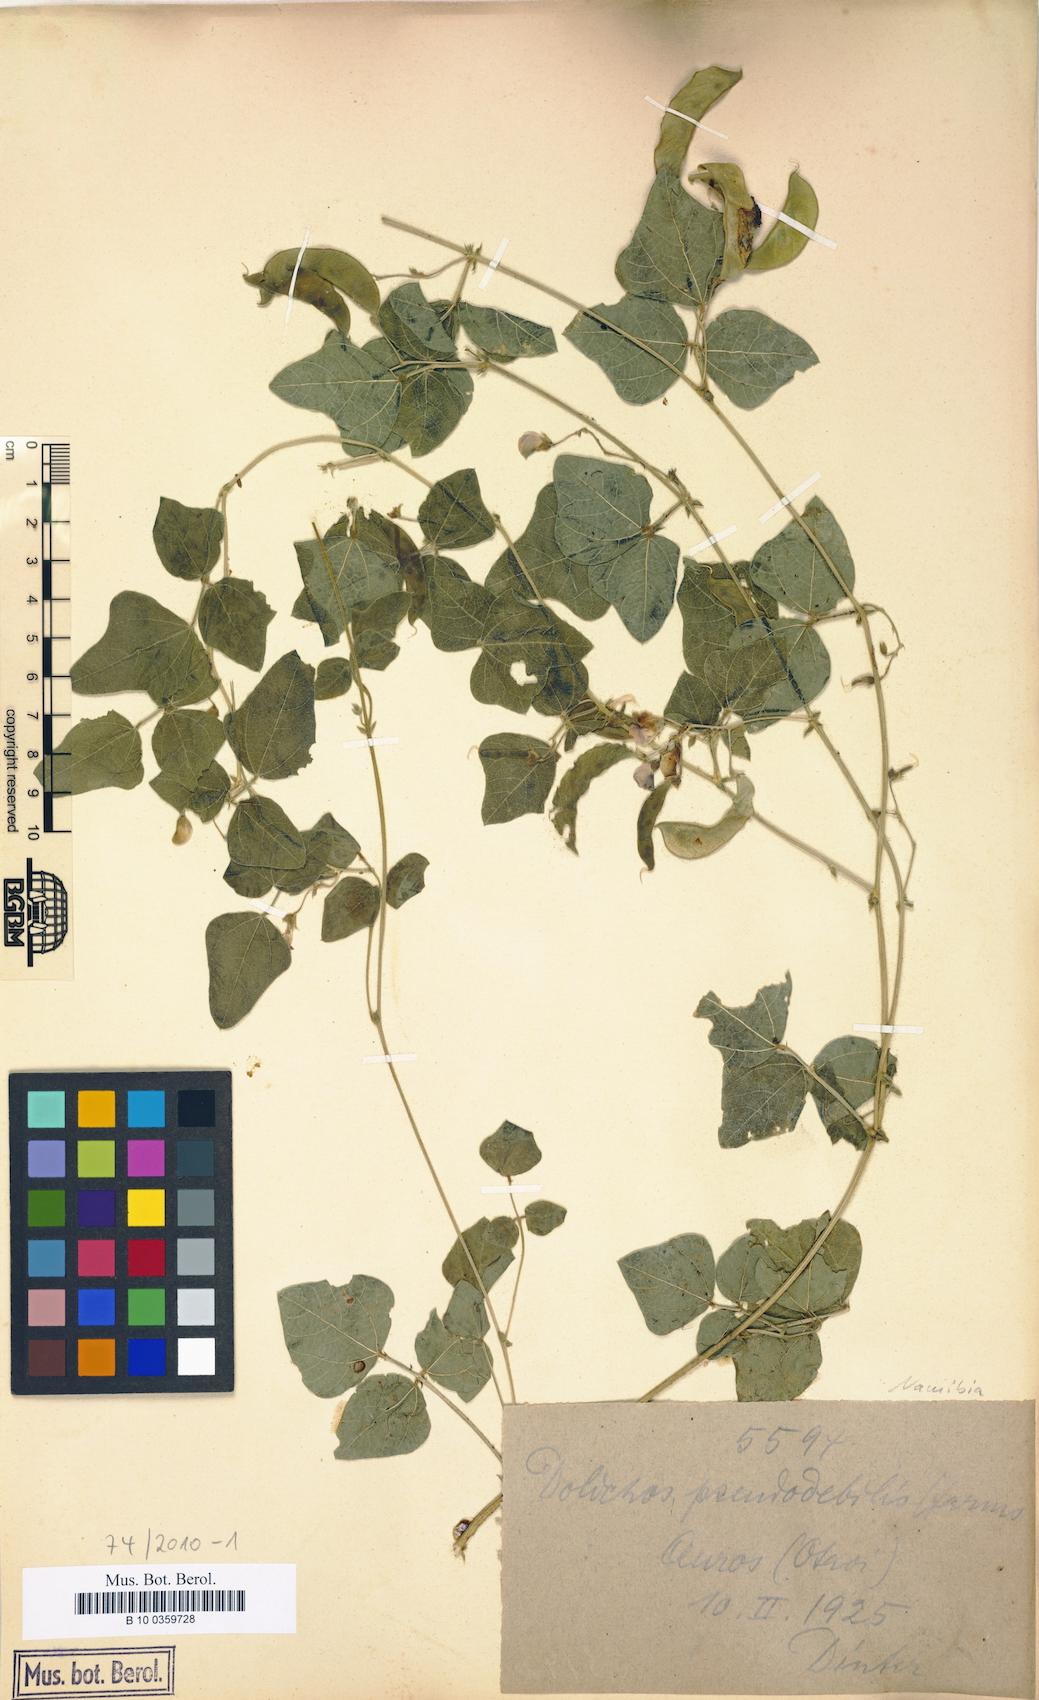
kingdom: Plantae
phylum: Tracheophyta
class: Magnoliopsida
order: Fabales
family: Fabaceae
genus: Dolichos
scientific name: Dolichos pseudodebilis
